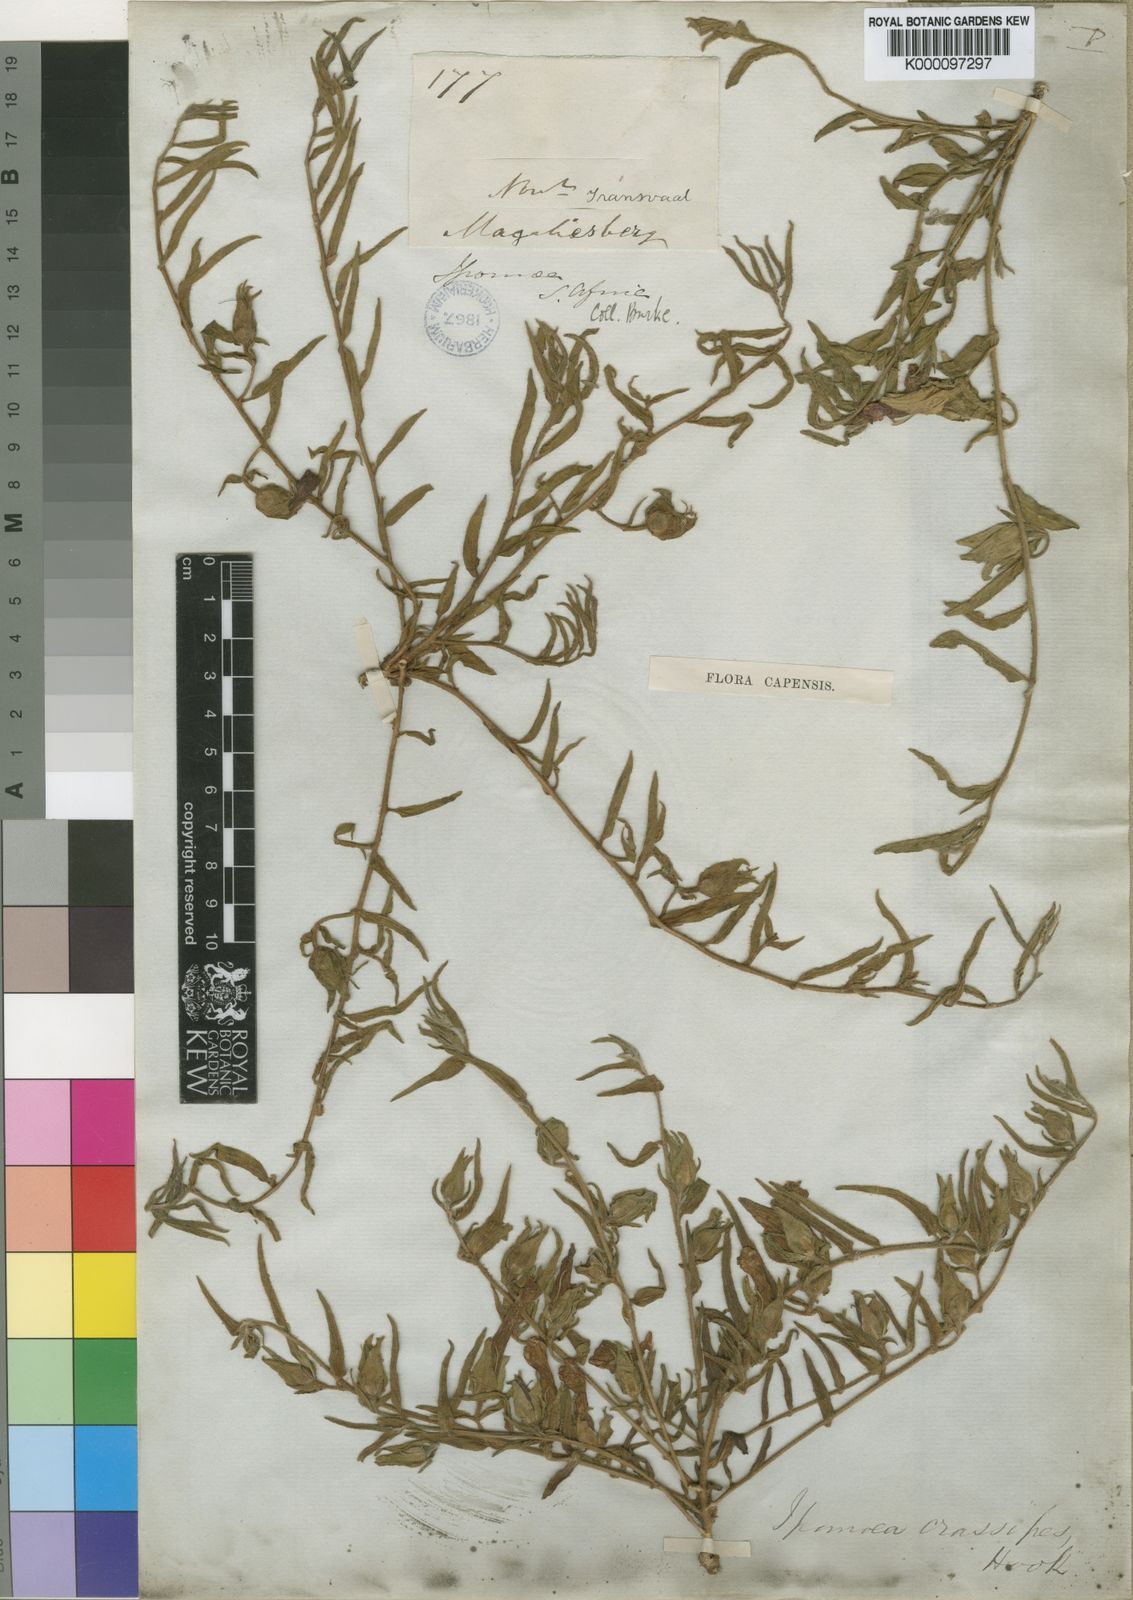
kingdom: Plantae
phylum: Tracheophyta
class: Magnoliopsida
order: Solanales
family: Convolvulaceae
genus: Ipomoea
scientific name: Ipomoea crassipes
